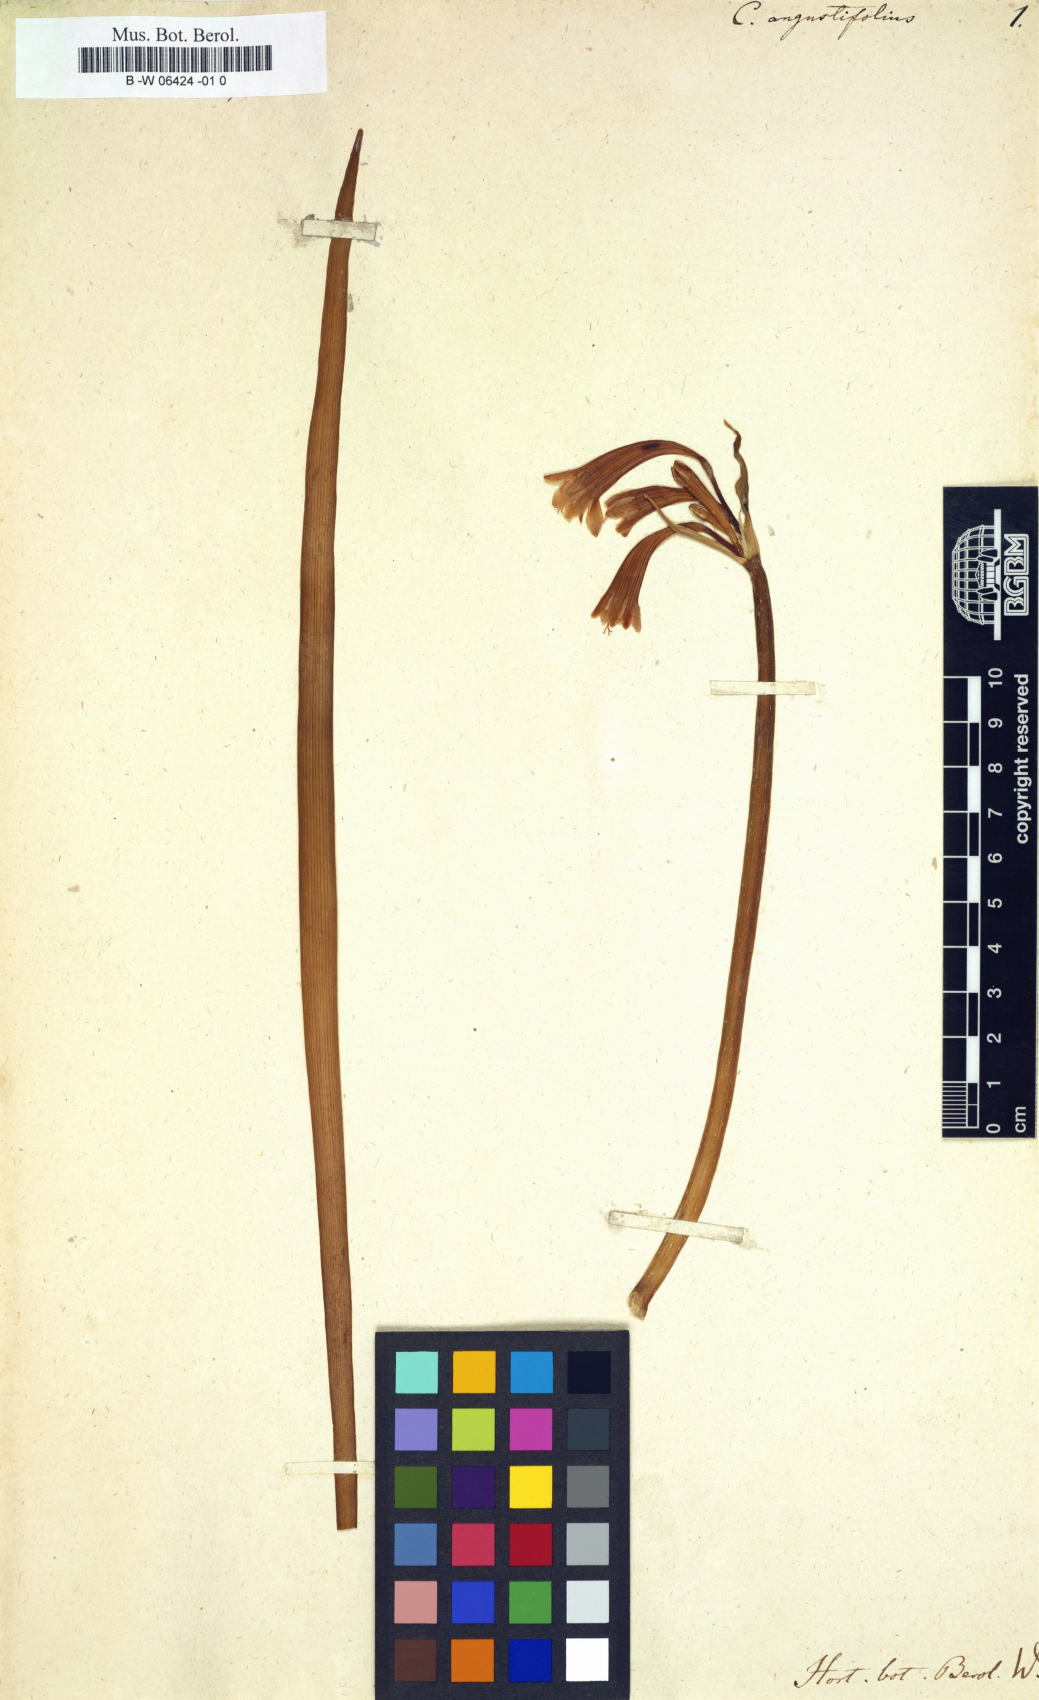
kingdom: Plantae
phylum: Tracheophyta
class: Liliopsida
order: Asparagales
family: Amaryllidaceae
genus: Cyrtanthus
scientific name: Cyrtanthus angustifolius
